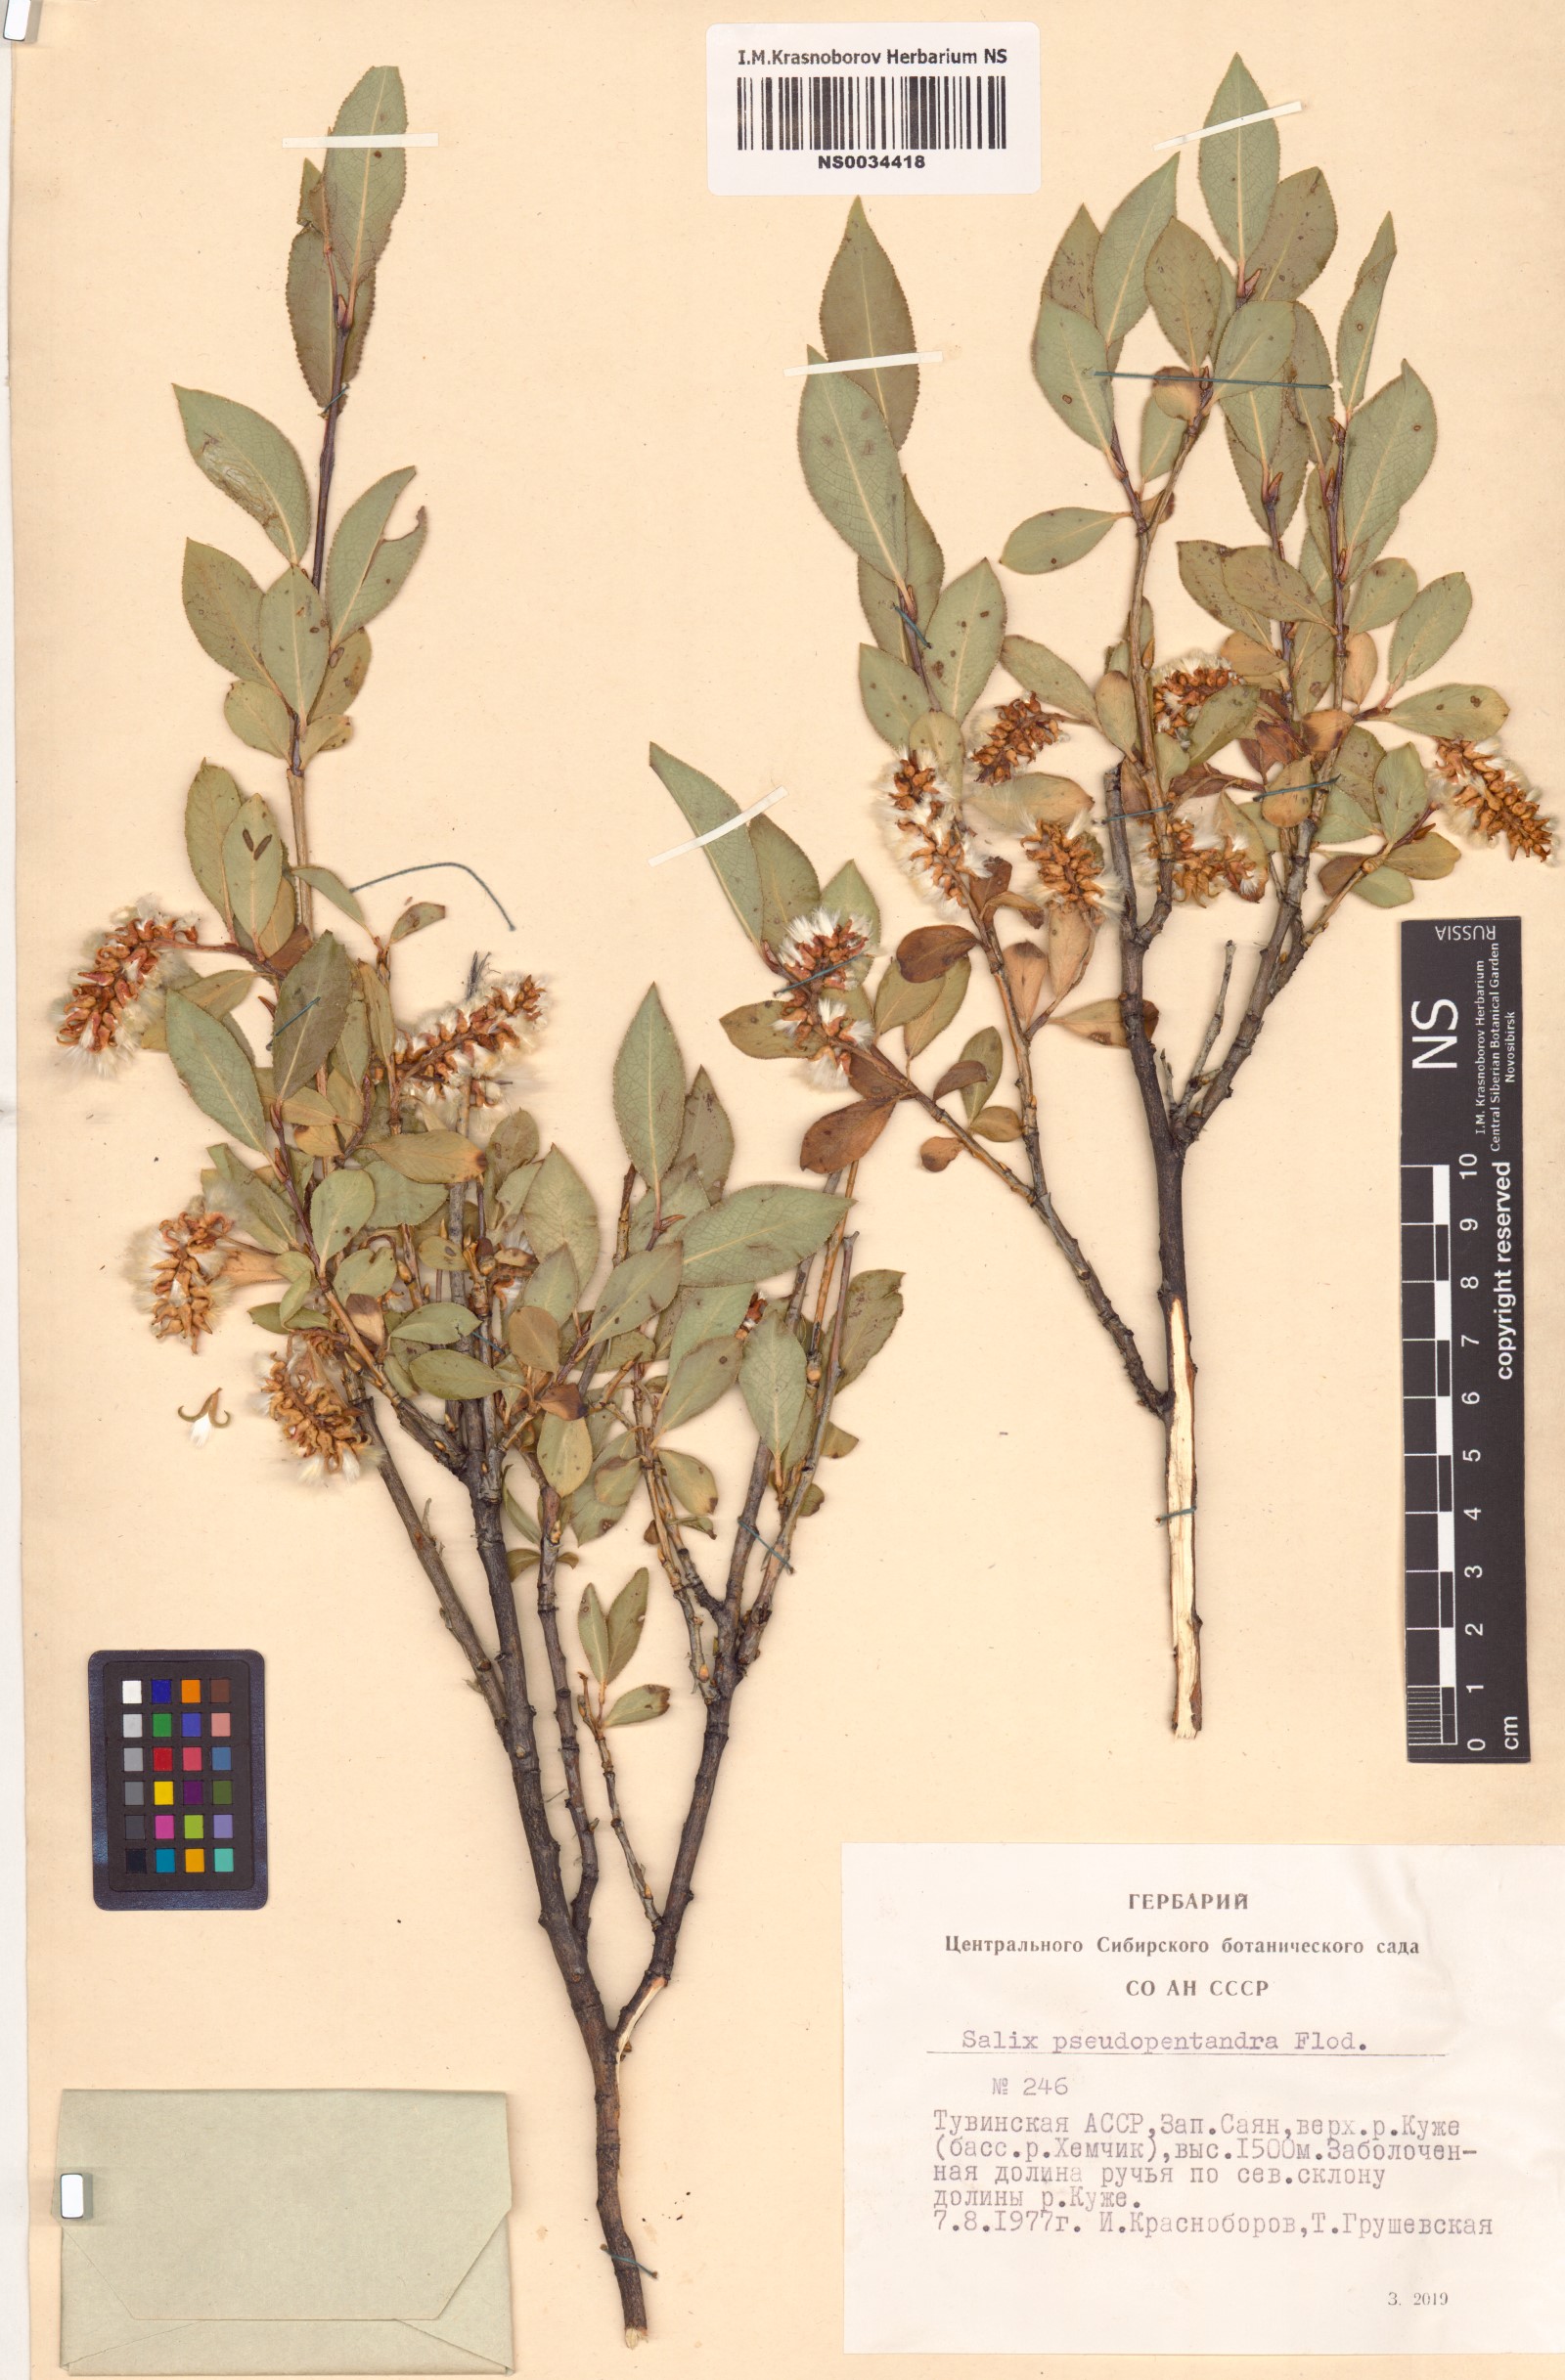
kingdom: Plantae
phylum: Tracheophyta
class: Magnoliopsida
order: Malpighiales
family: Salicaceae
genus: Salix
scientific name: Salix pseudopentandra
